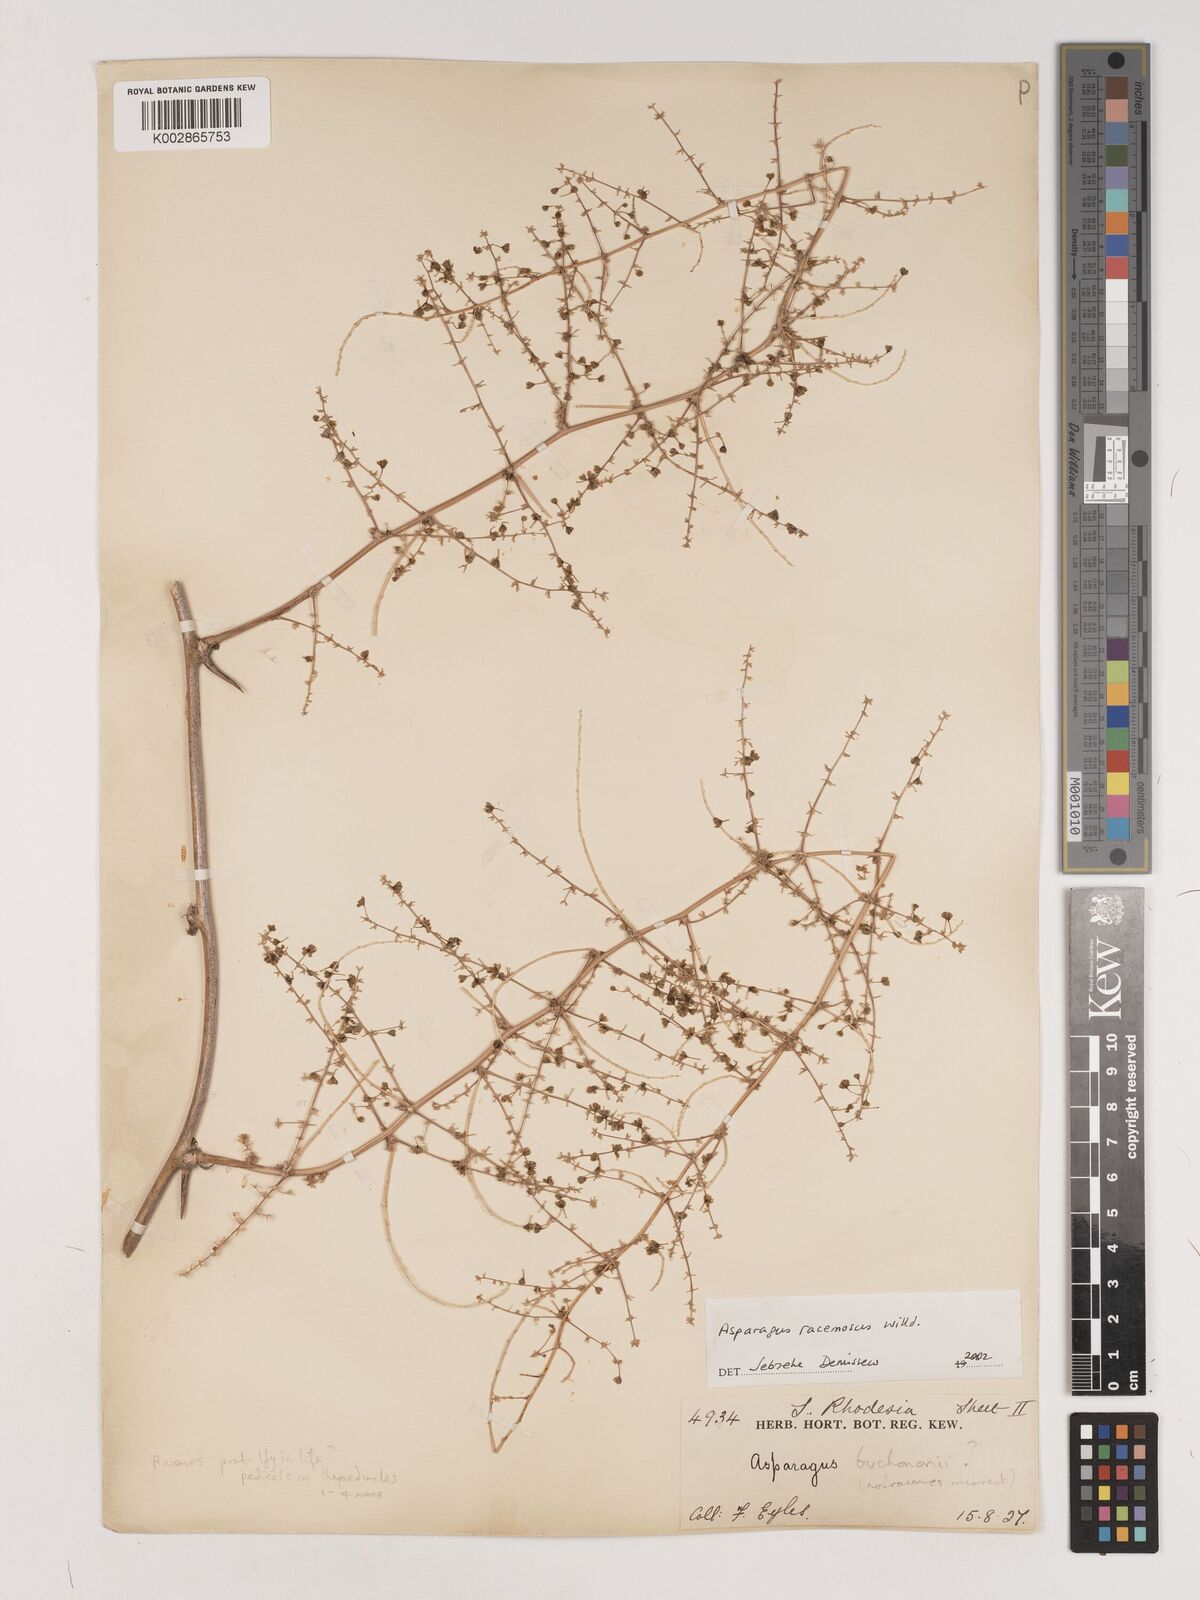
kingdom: Plantae
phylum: Tracheophyta
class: Liliopsida
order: Asparagales
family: Asparagaceae
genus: Asparagus
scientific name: Asparagus racemosus
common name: Asparagus-fern
